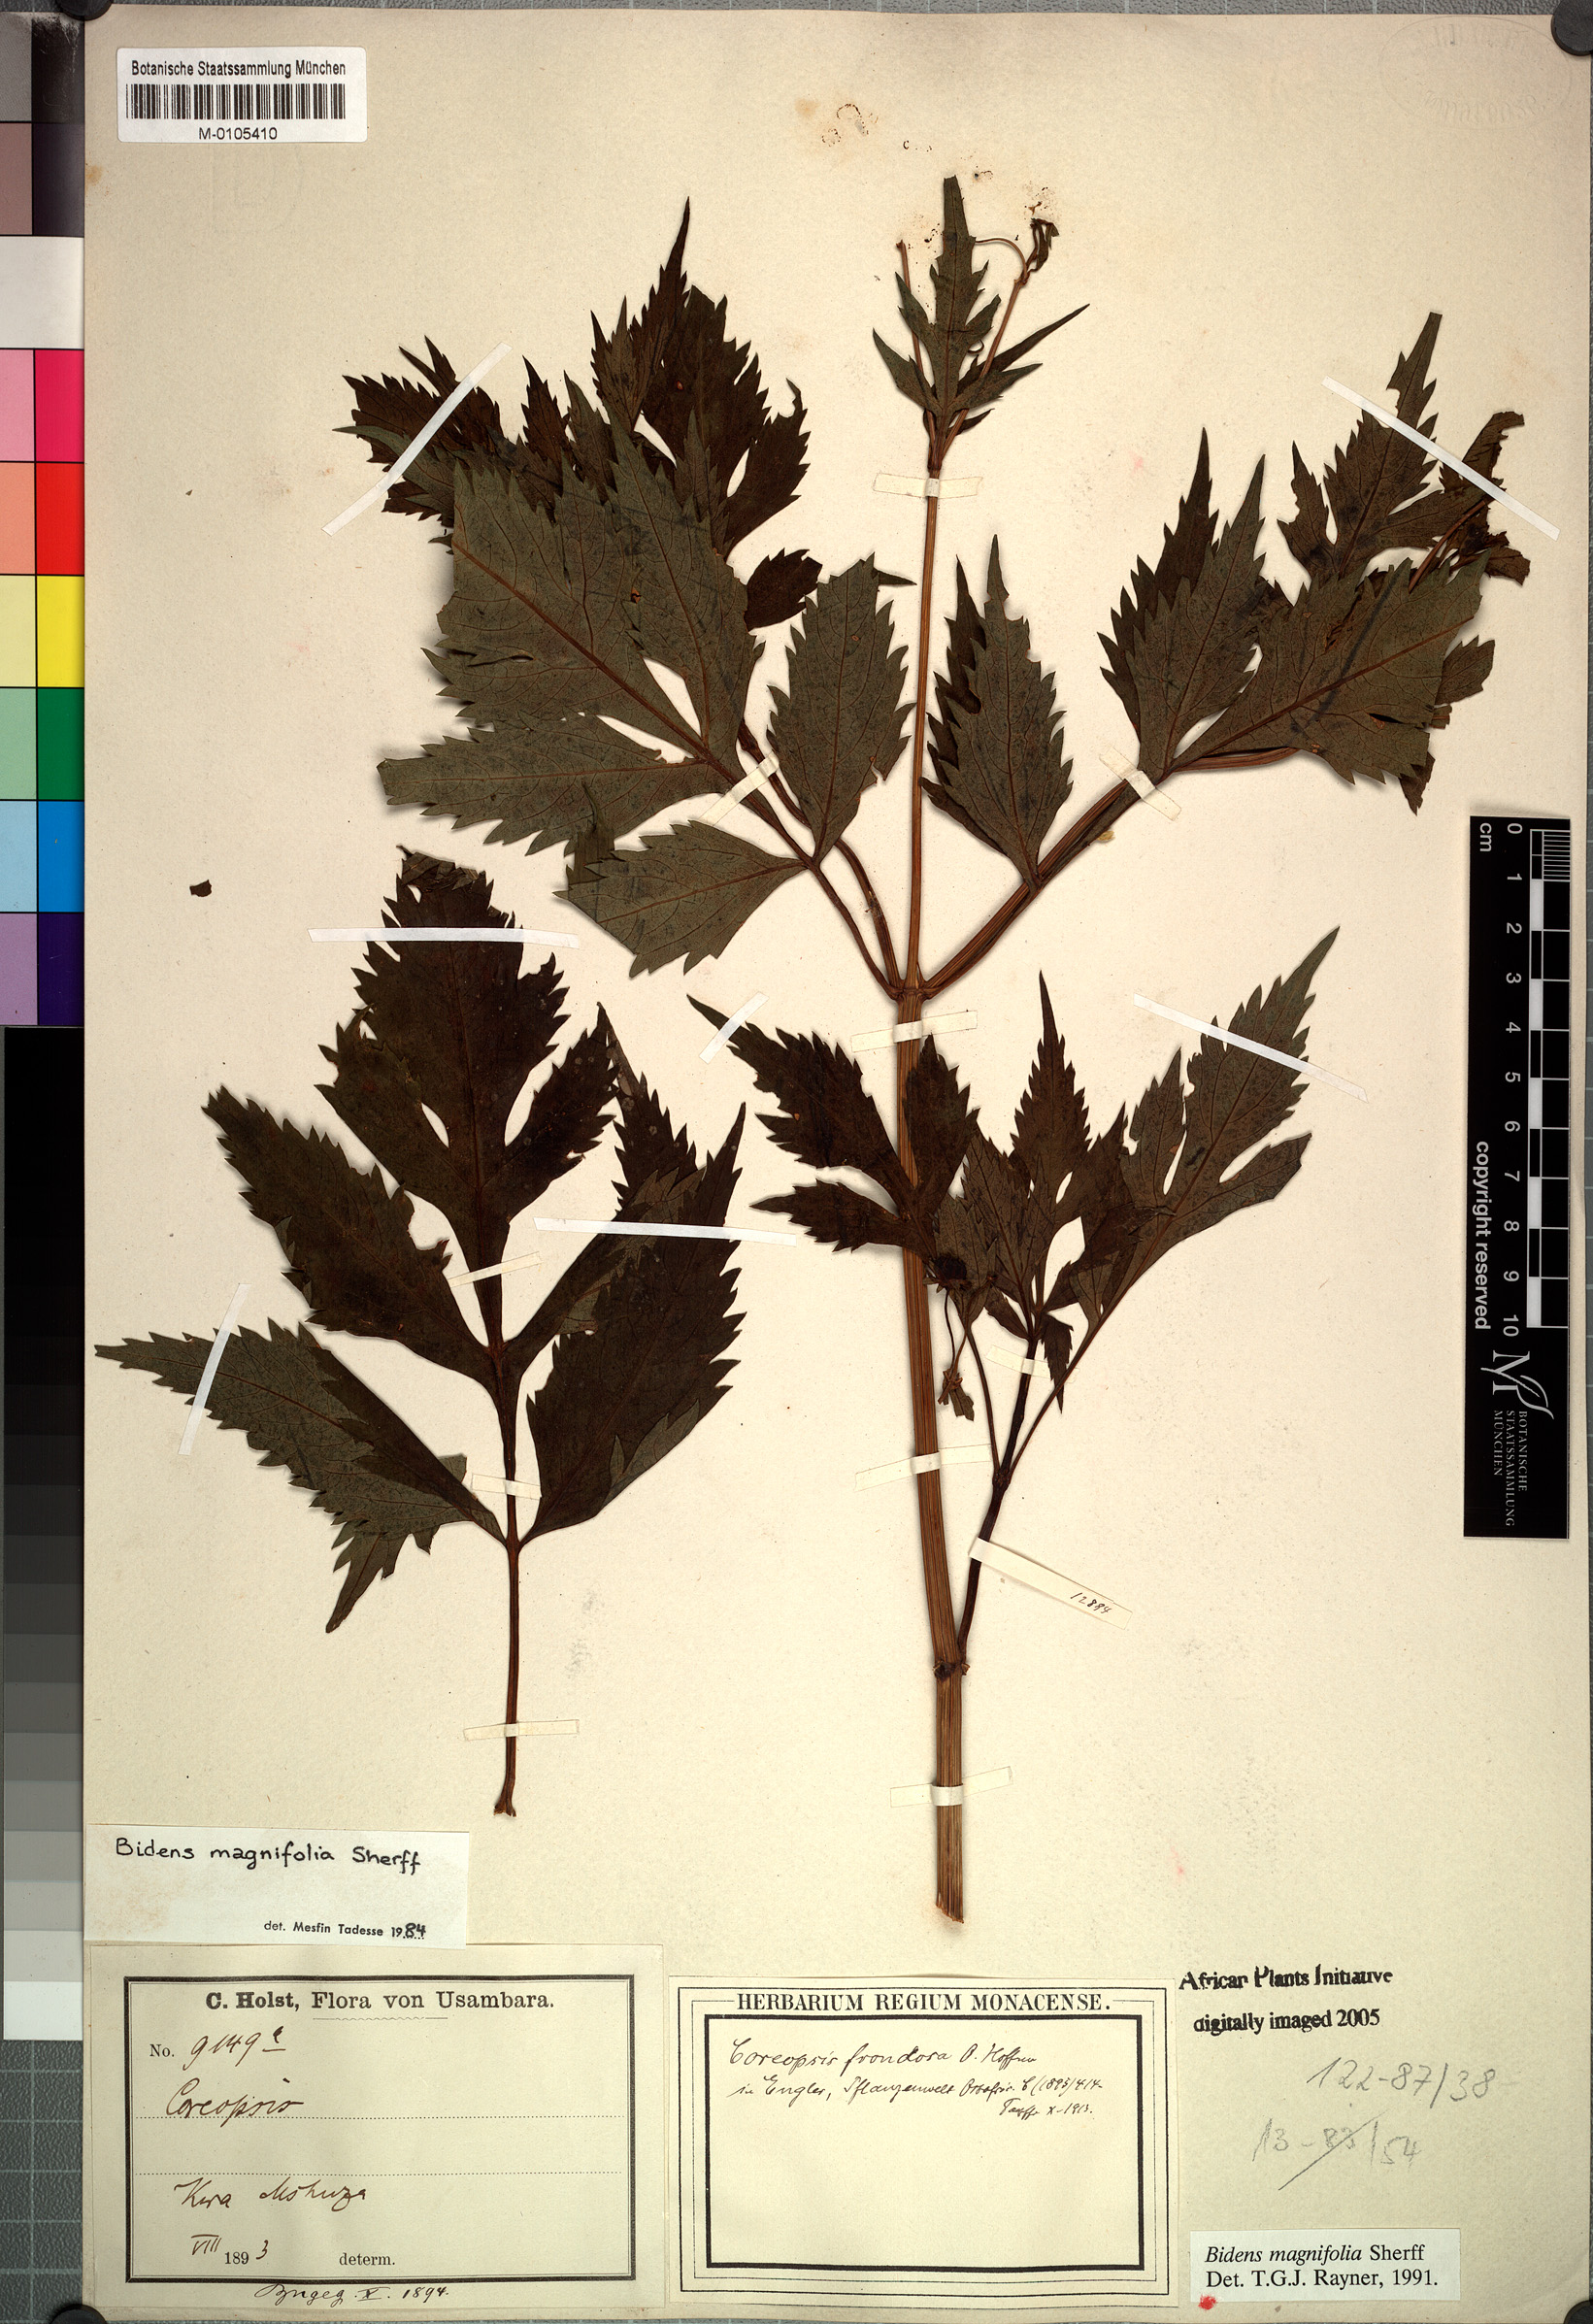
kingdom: Plantae
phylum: Tracheophyta
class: Magnoliopsida
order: Asterales
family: Asteraceae
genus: Bidens
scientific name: Bidens magnifolia
